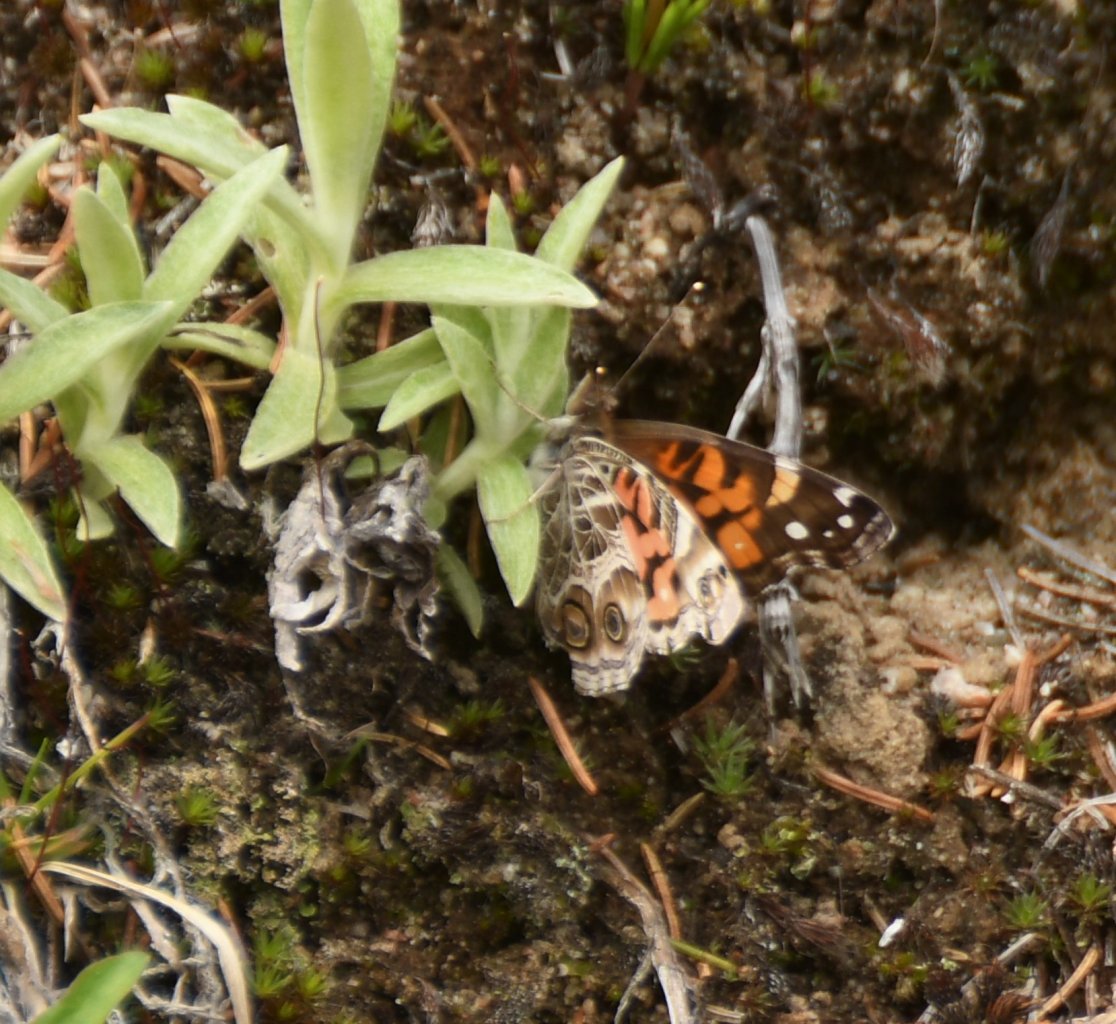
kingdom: Animalia
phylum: Arthropoda
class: Insecta
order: Lepidoptera
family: Nymphalidae
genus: Vanessa
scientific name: Vanessa virginiensis
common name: American Lady
